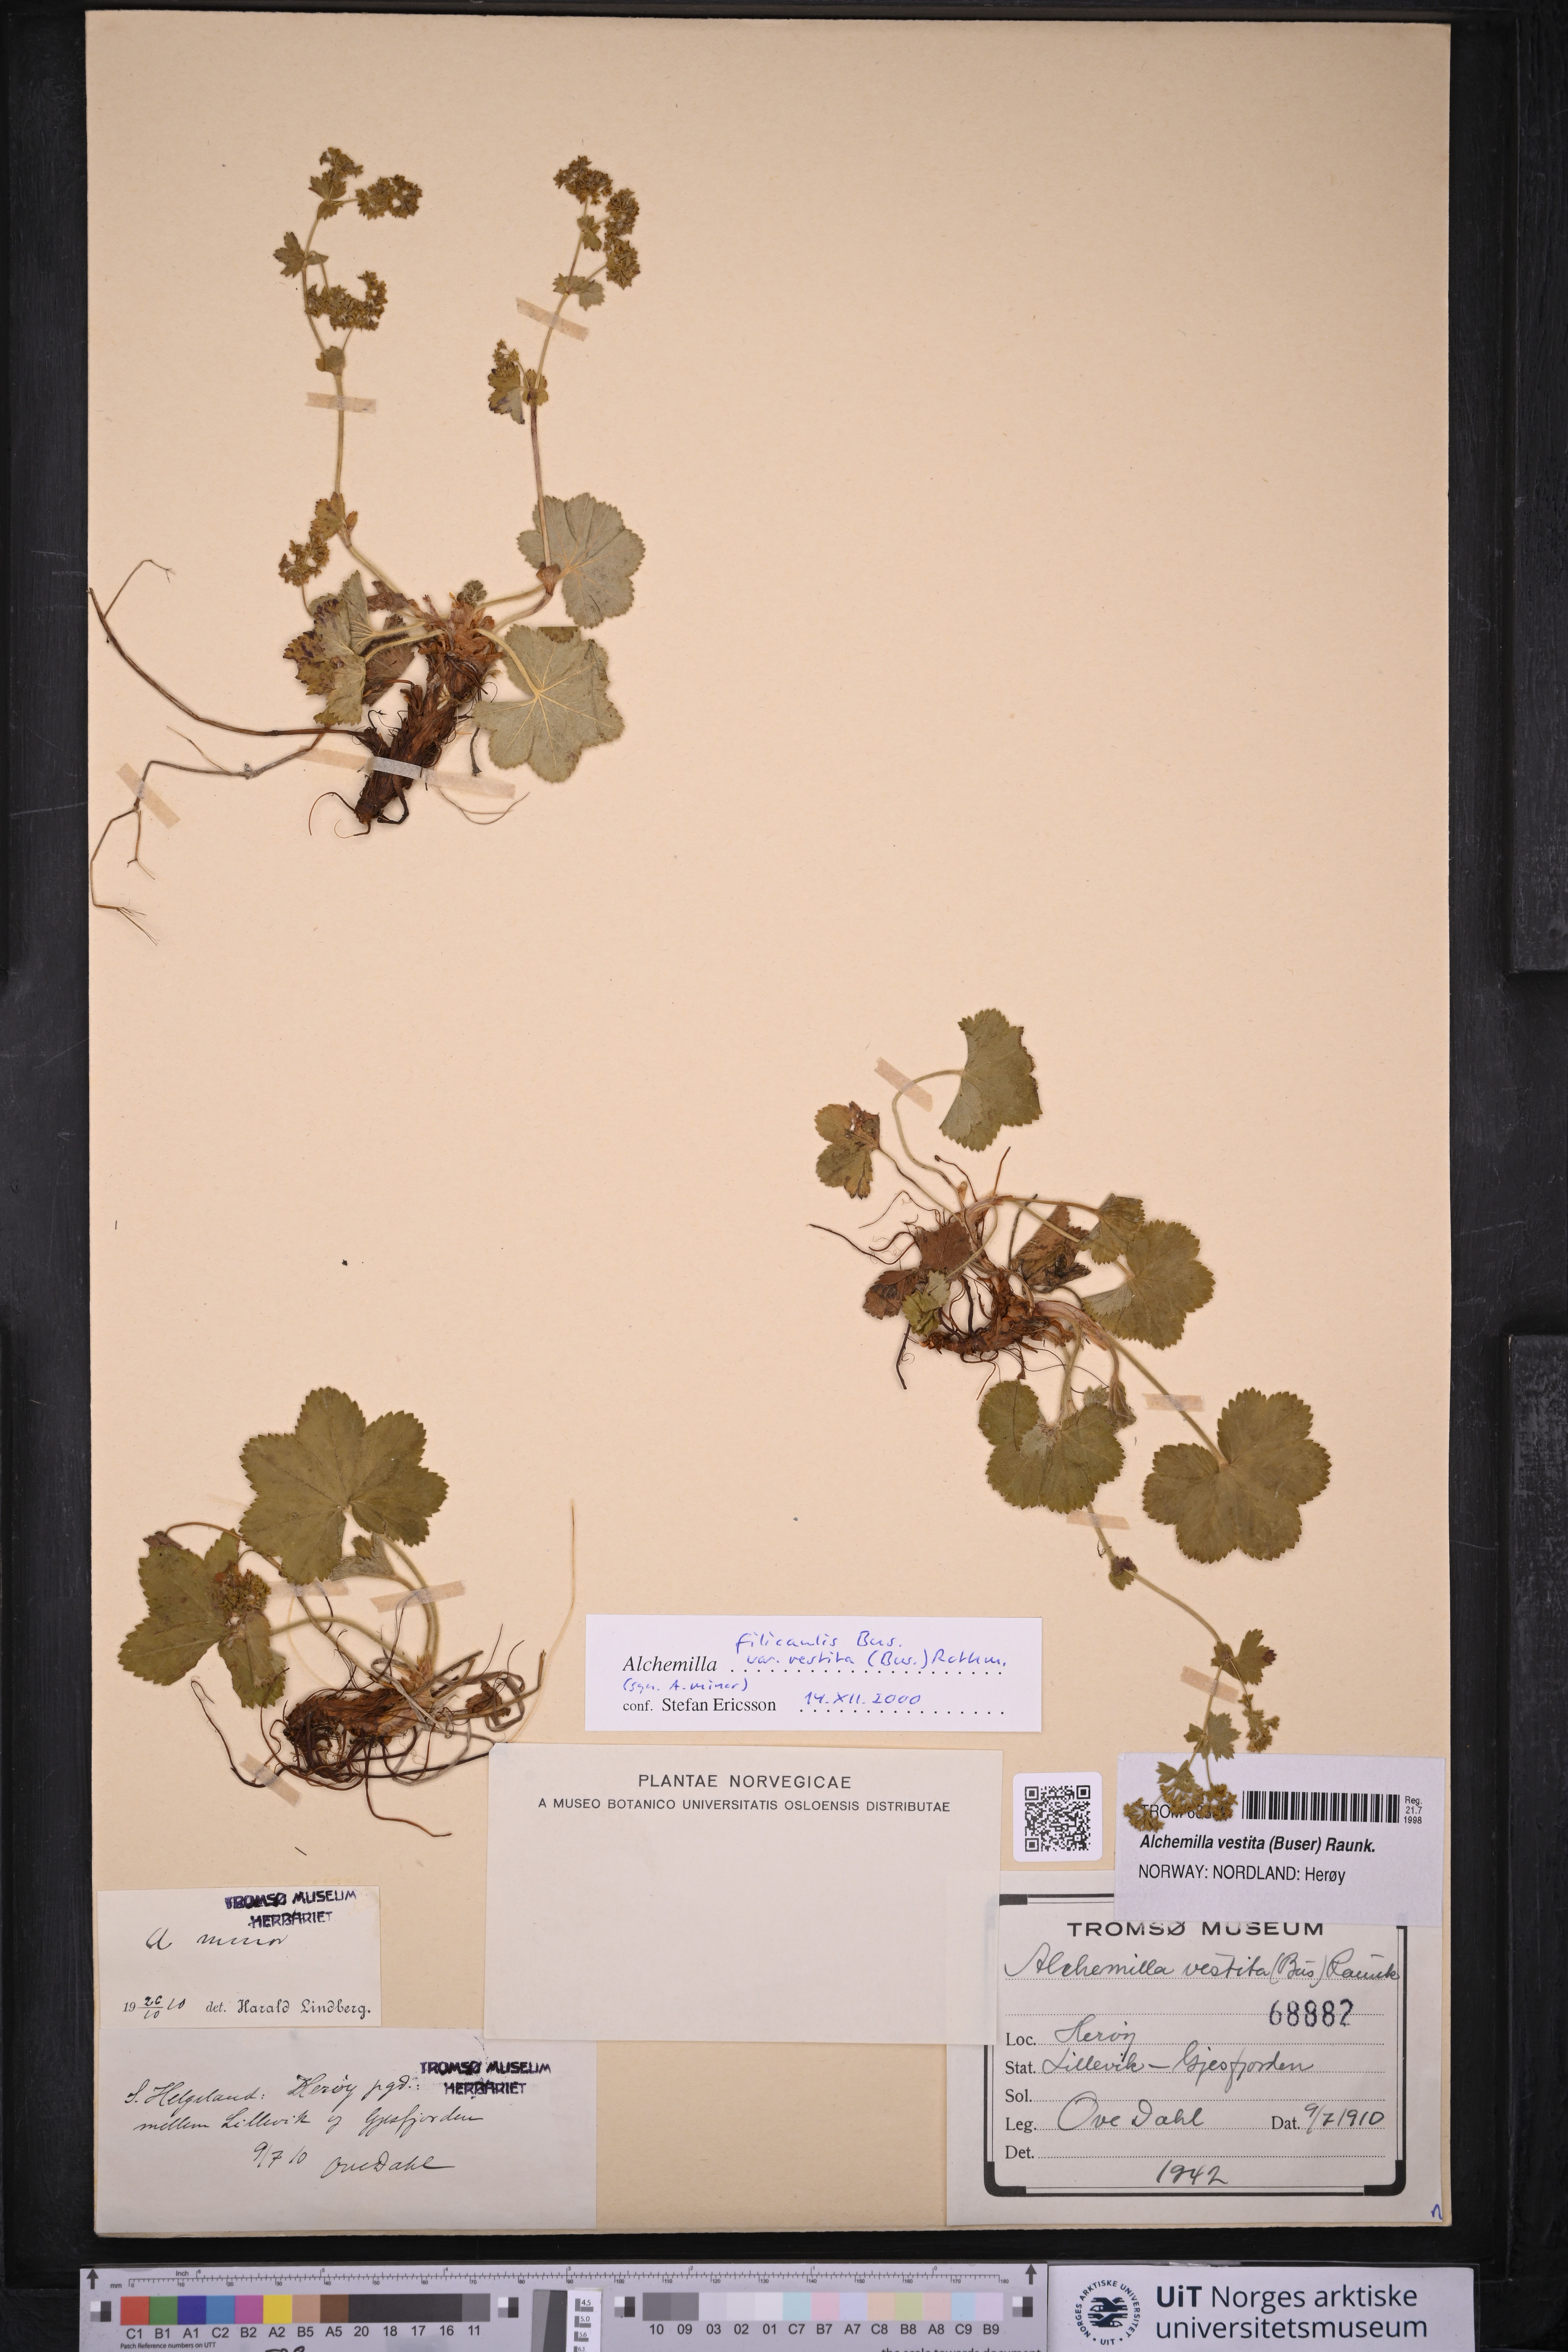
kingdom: Plantae
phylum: Tracheophyta
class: Magnoliopsida
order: Rosales
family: Rosaceae
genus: Alchemilla
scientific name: Alchemilla filicaulis
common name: Hairy lady's-mantle
